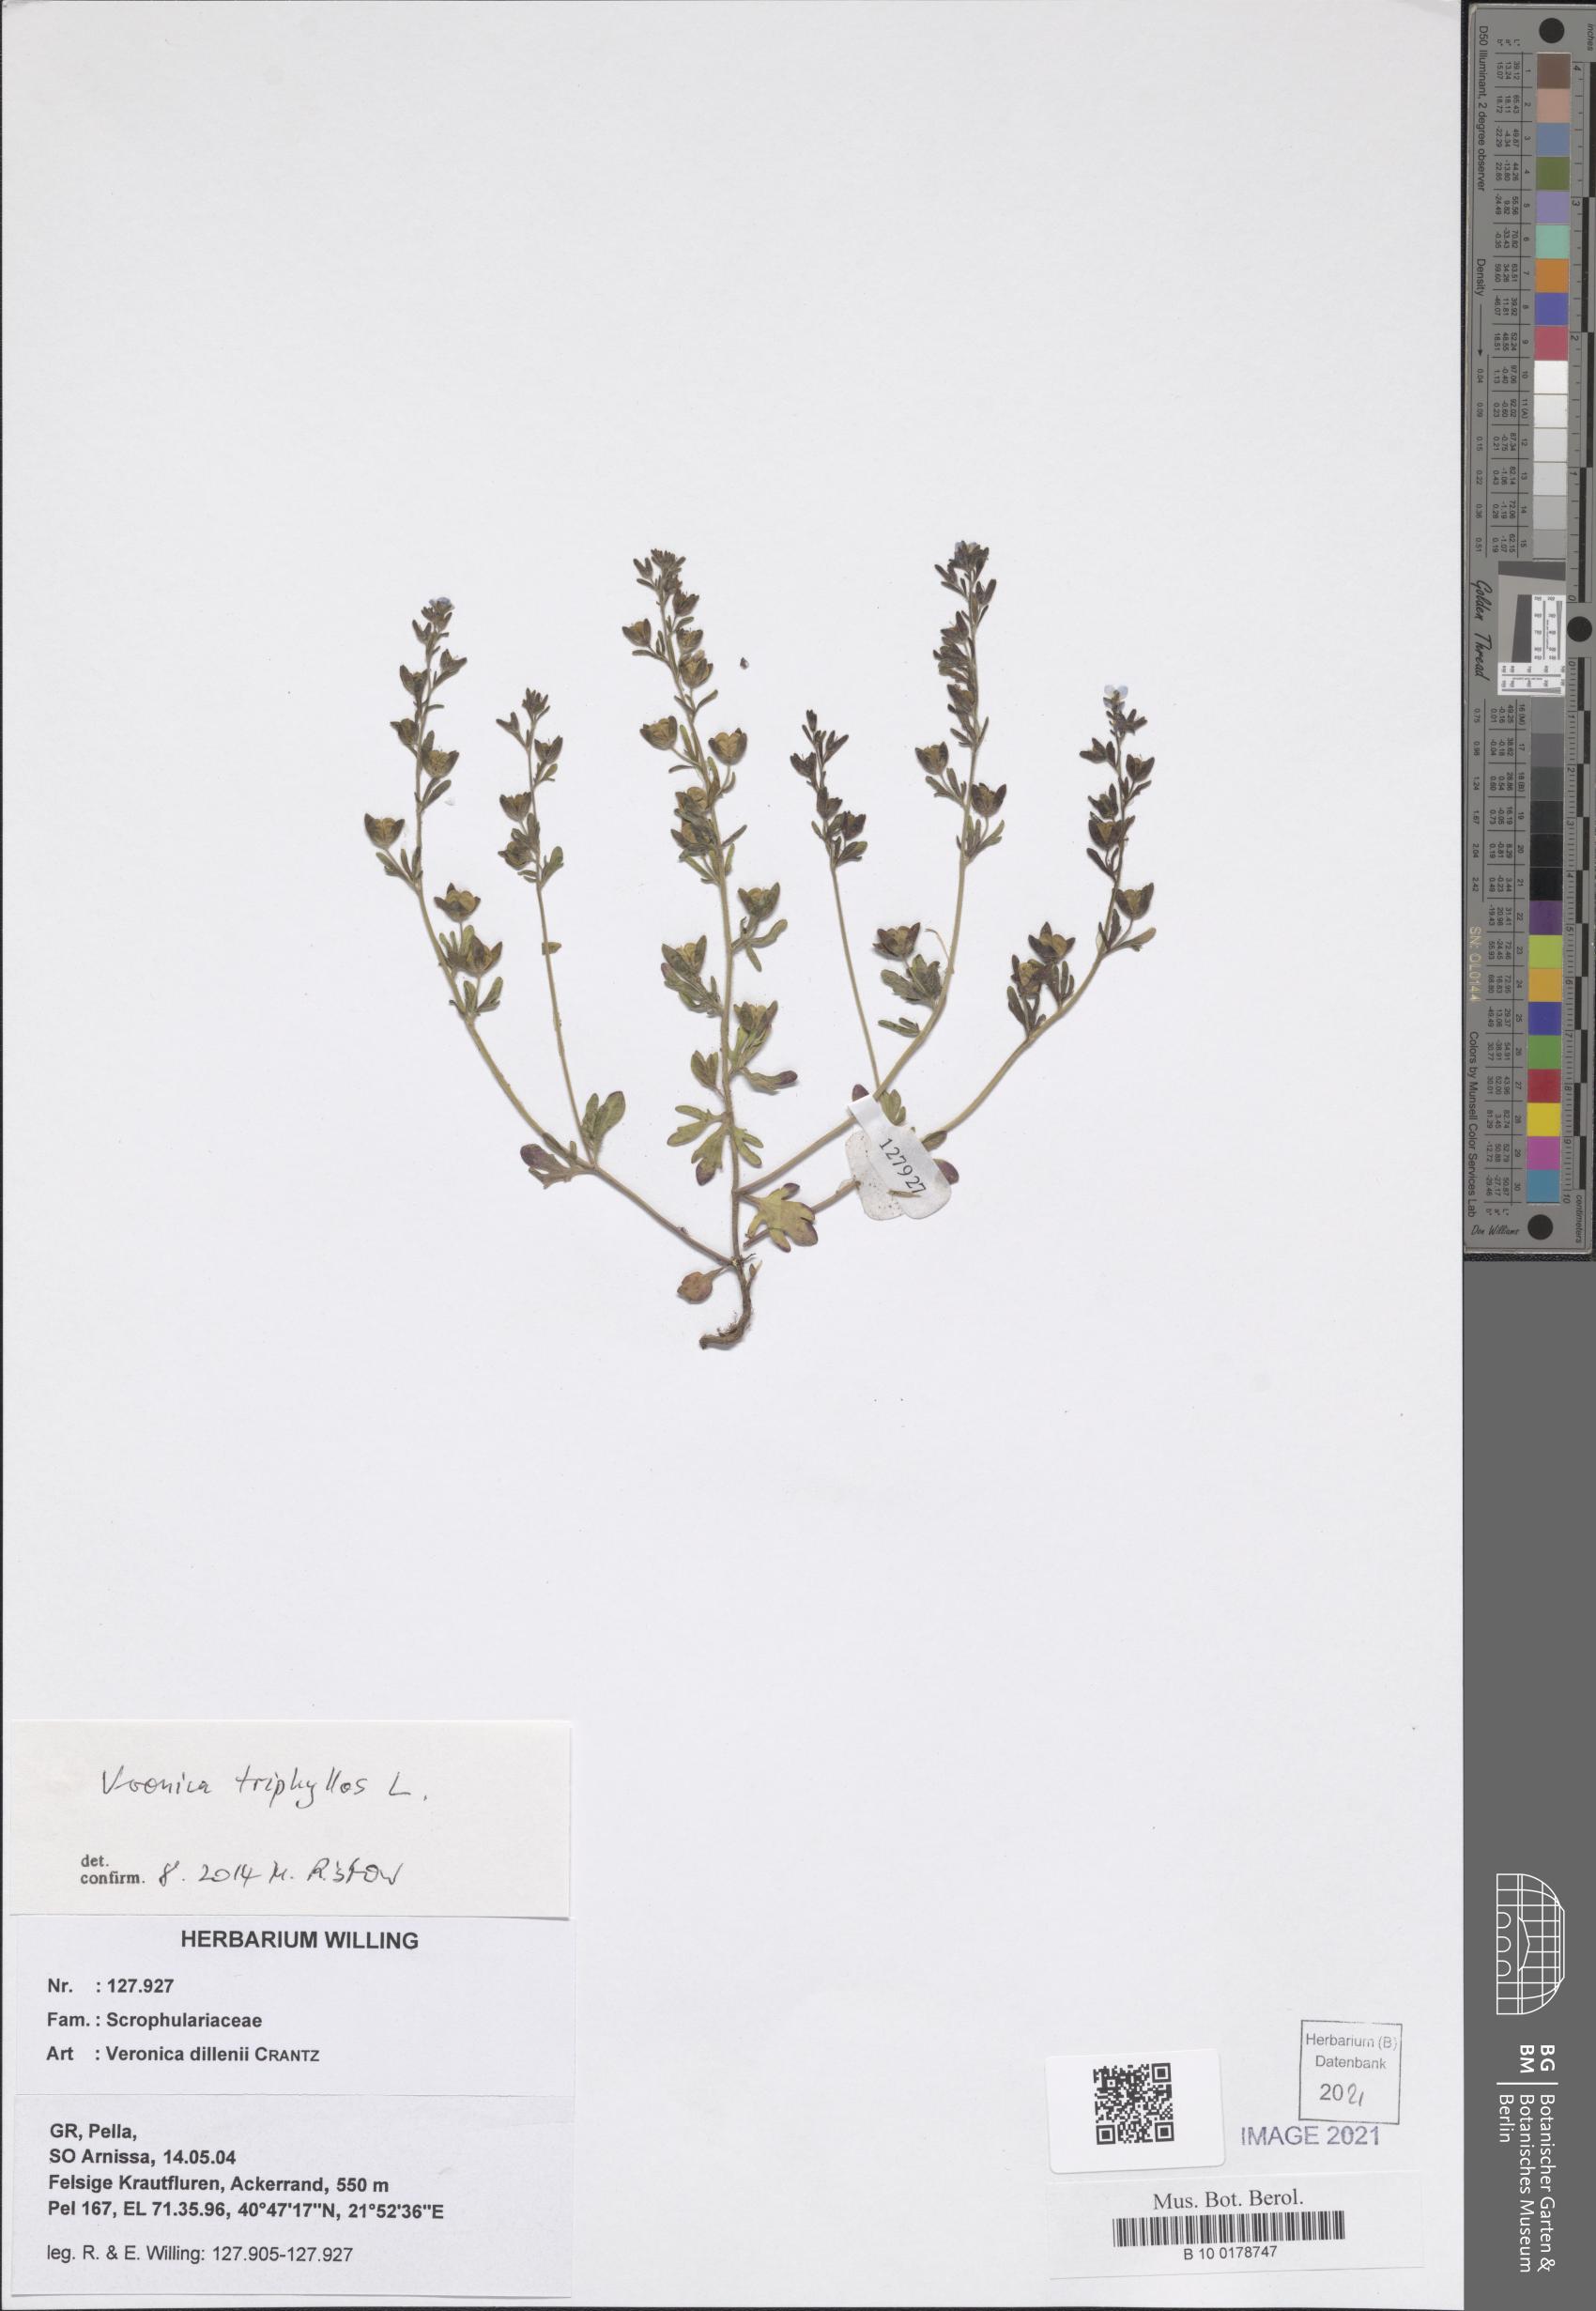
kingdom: Plantae
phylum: Tracheophyta
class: Magnoliopsida
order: Lamiales
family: Plantaginaceae
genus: Veronica
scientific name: Veronica triphyllos
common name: Fingered speedwell
